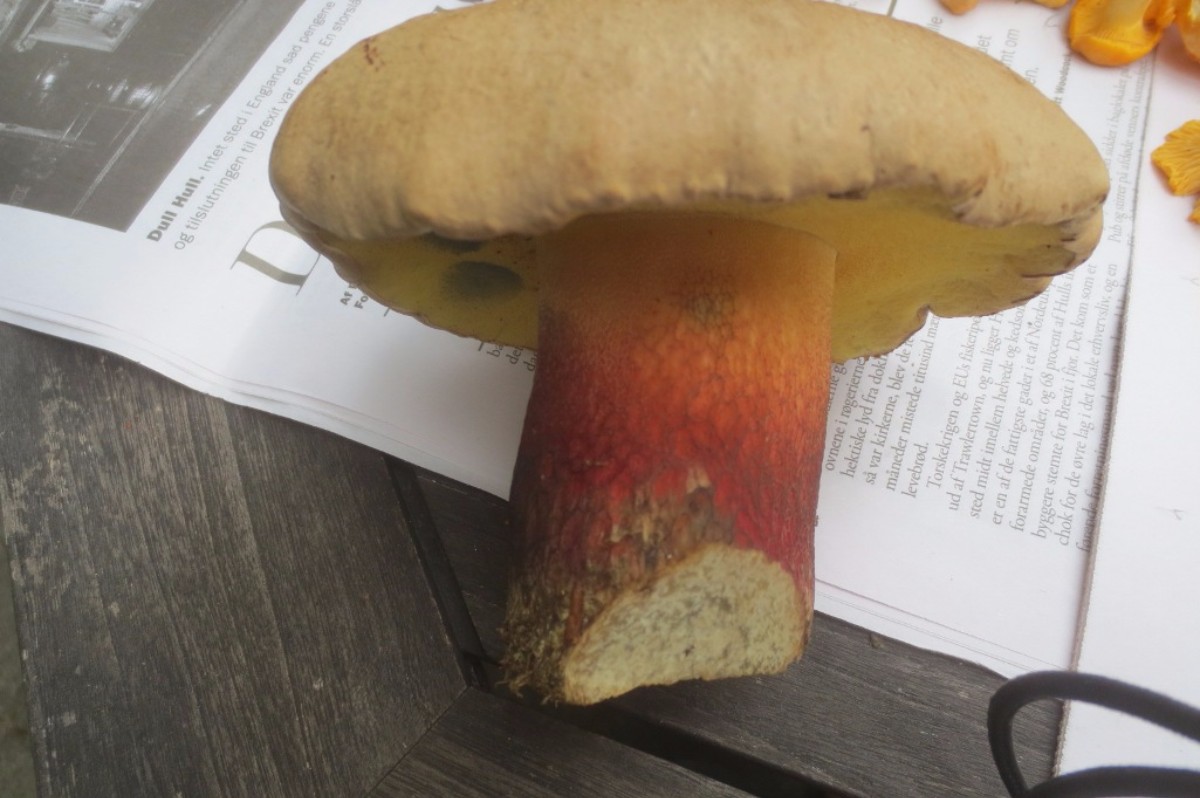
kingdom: Fungi
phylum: Basidiomycota
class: Agaricomycetes
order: Boletales
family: Boletaceae
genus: Caloboletus
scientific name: Caloboletus calopus
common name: skønfodet rørhat
